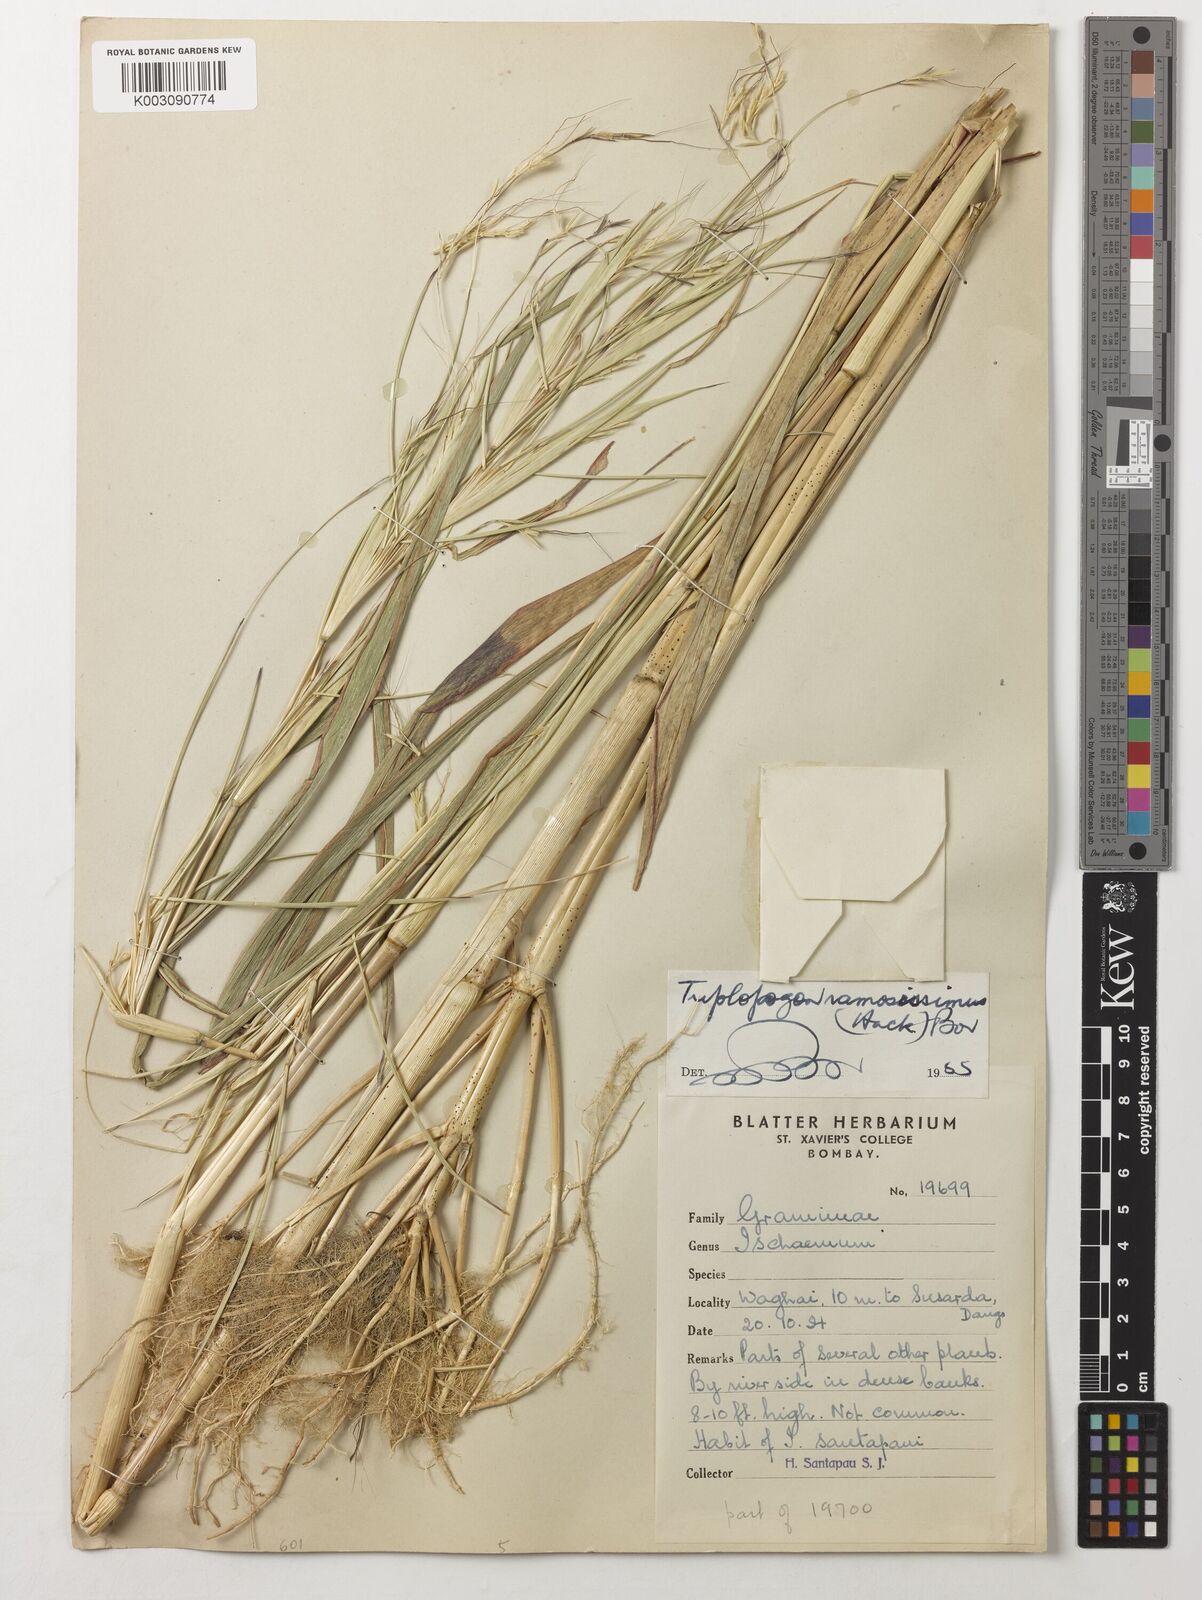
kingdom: Plantae
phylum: Tracheophyta
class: Liliopsida
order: Poales
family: Poaceae
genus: Triplopogon
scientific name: Triplopogon ramosissimus
